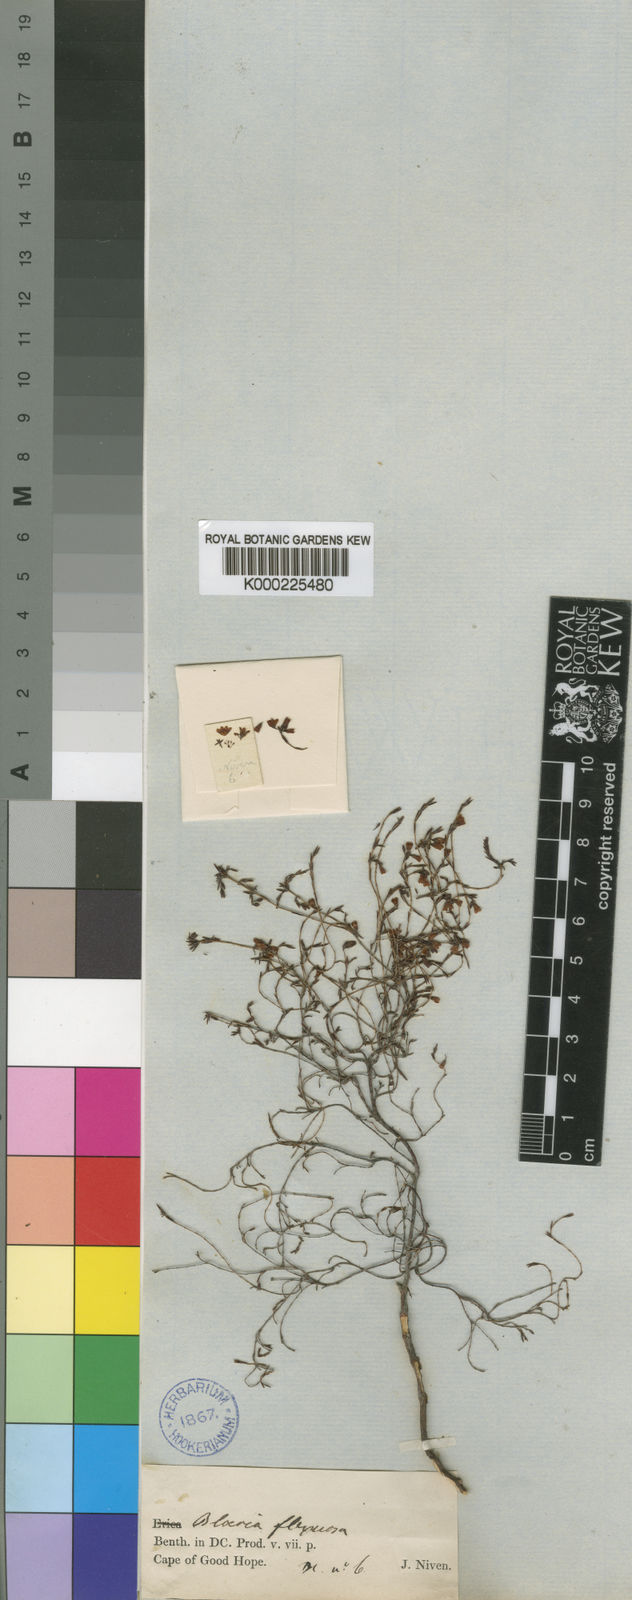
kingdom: Plantae
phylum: Tracheophyta
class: Magnoliopsida
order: Ericales
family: Ericaceae
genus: Erica
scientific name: Erica multiflexuosa
